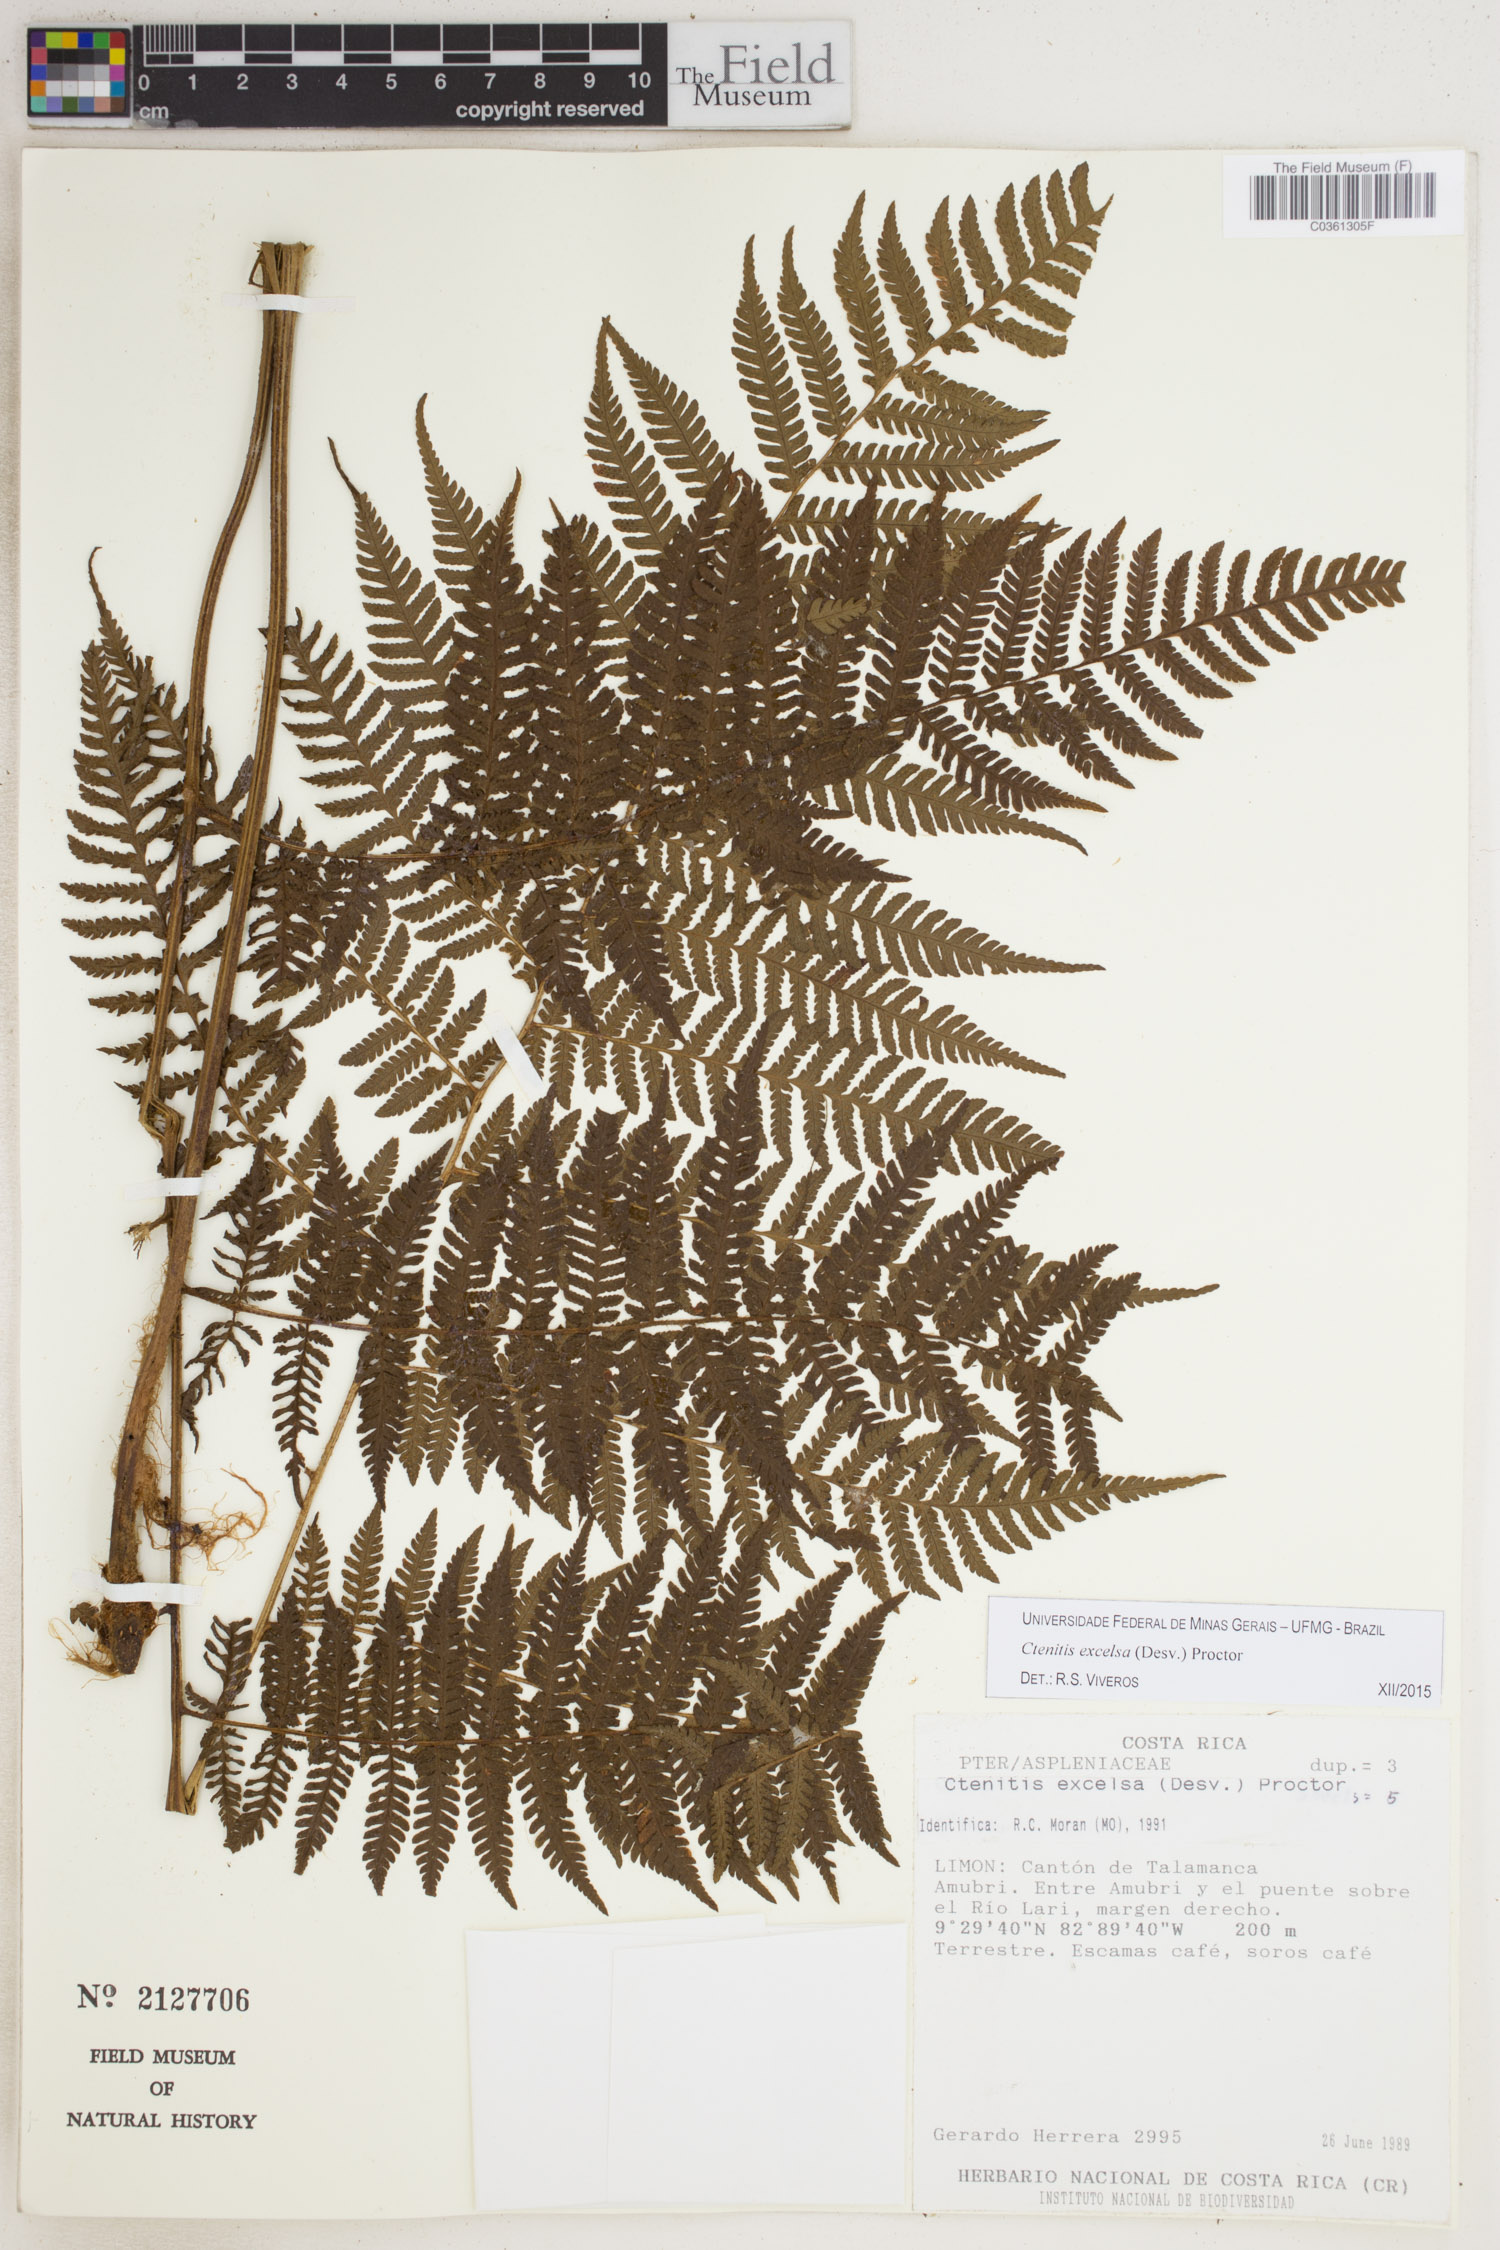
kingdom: Plantae
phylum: Tracheophyta
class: Polypodiopsida
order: Polypodiales
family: Dryopteridaceae
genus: Ctenitis
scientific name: Ctenitis excelsa
